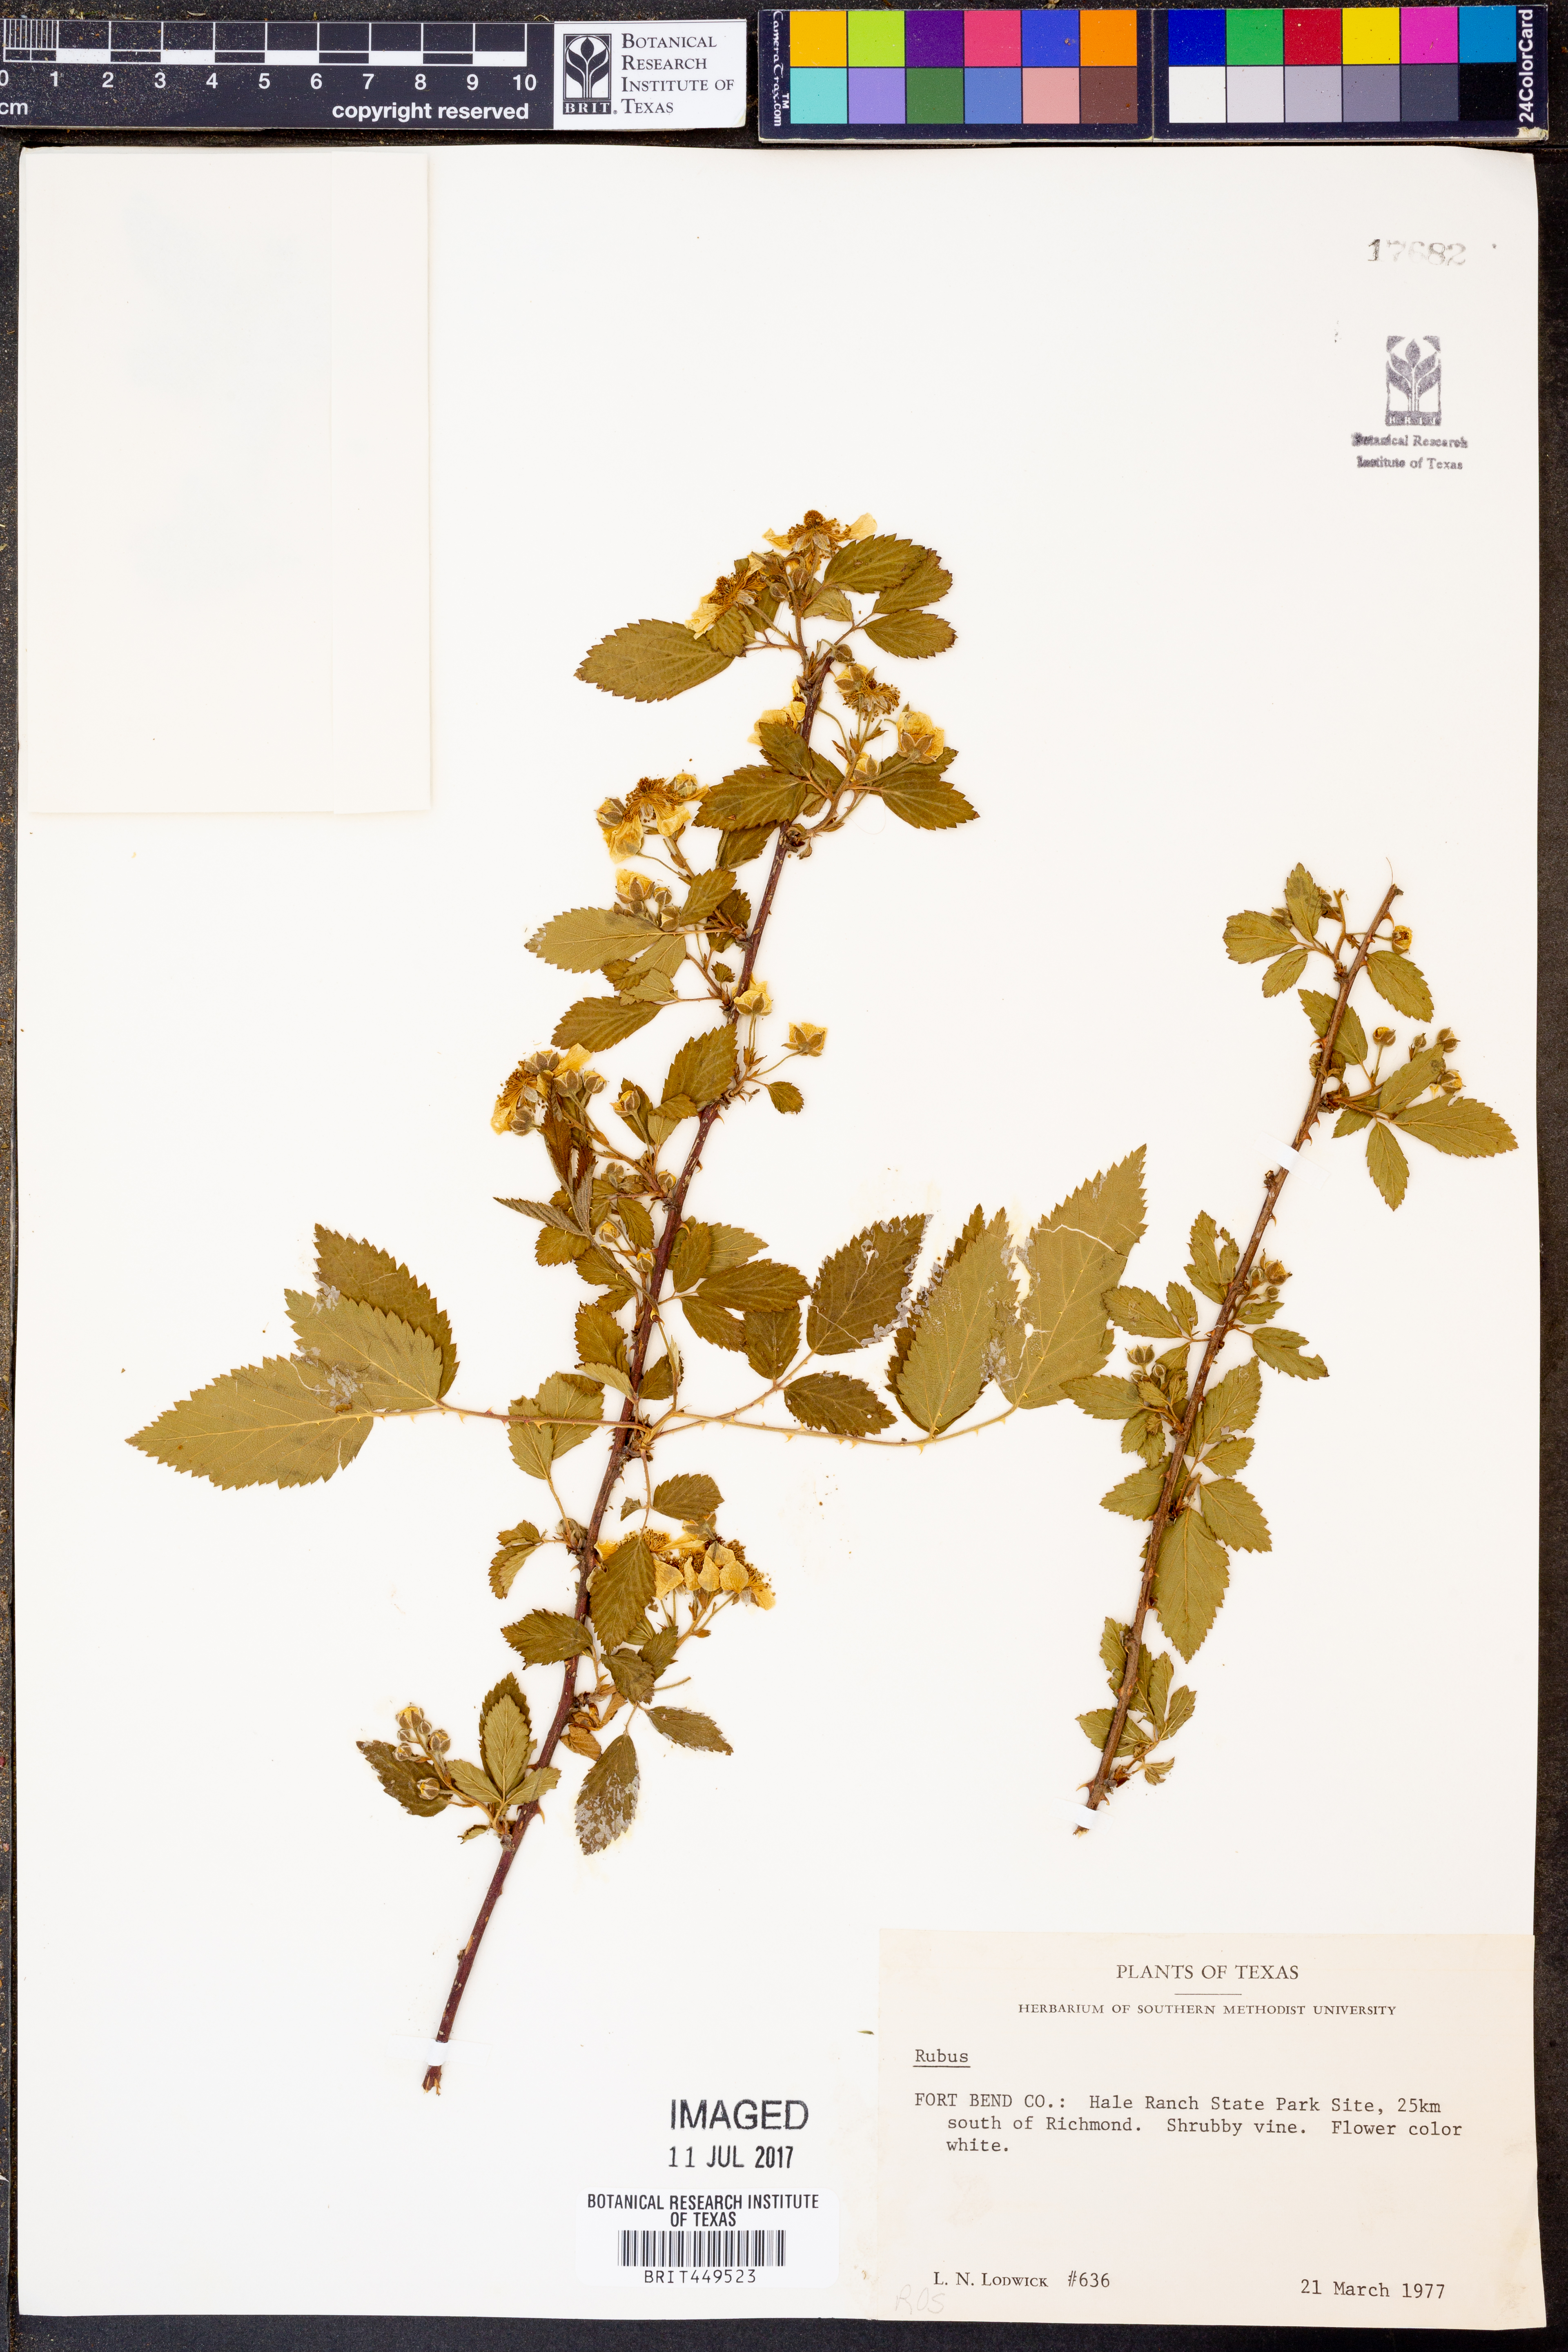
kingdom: Plantae
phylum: Tracheophyta
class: Magnoliopsida
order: Rosales
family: Rosaceae
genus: Rubus
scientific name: Rubus
